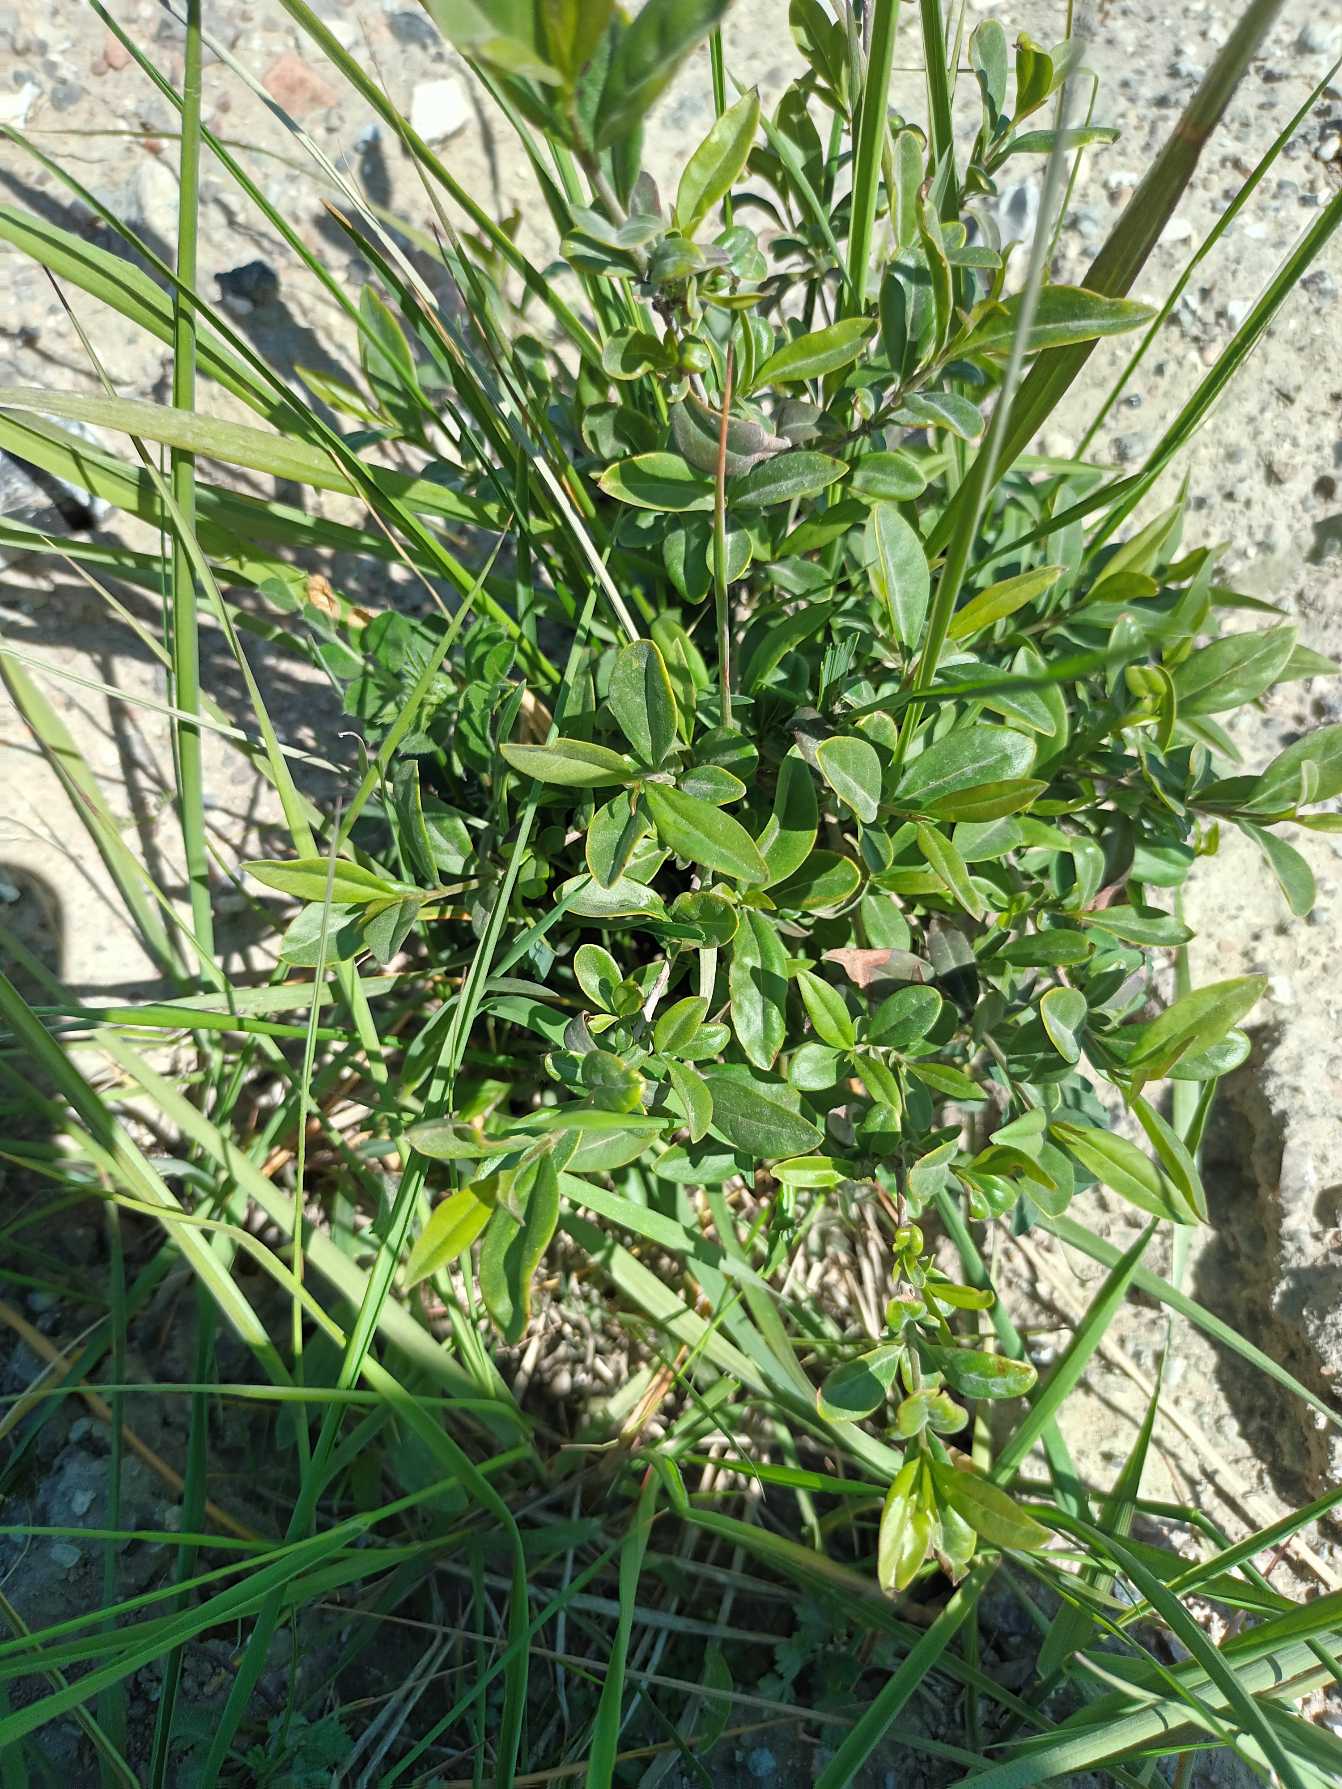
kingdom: Plantae
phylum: Tracheophyta
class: Magnoliopsida
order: Lamiales
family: Oleaceae
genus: Ligustrum
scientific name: Ligustrum vulgare
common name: Liguster
